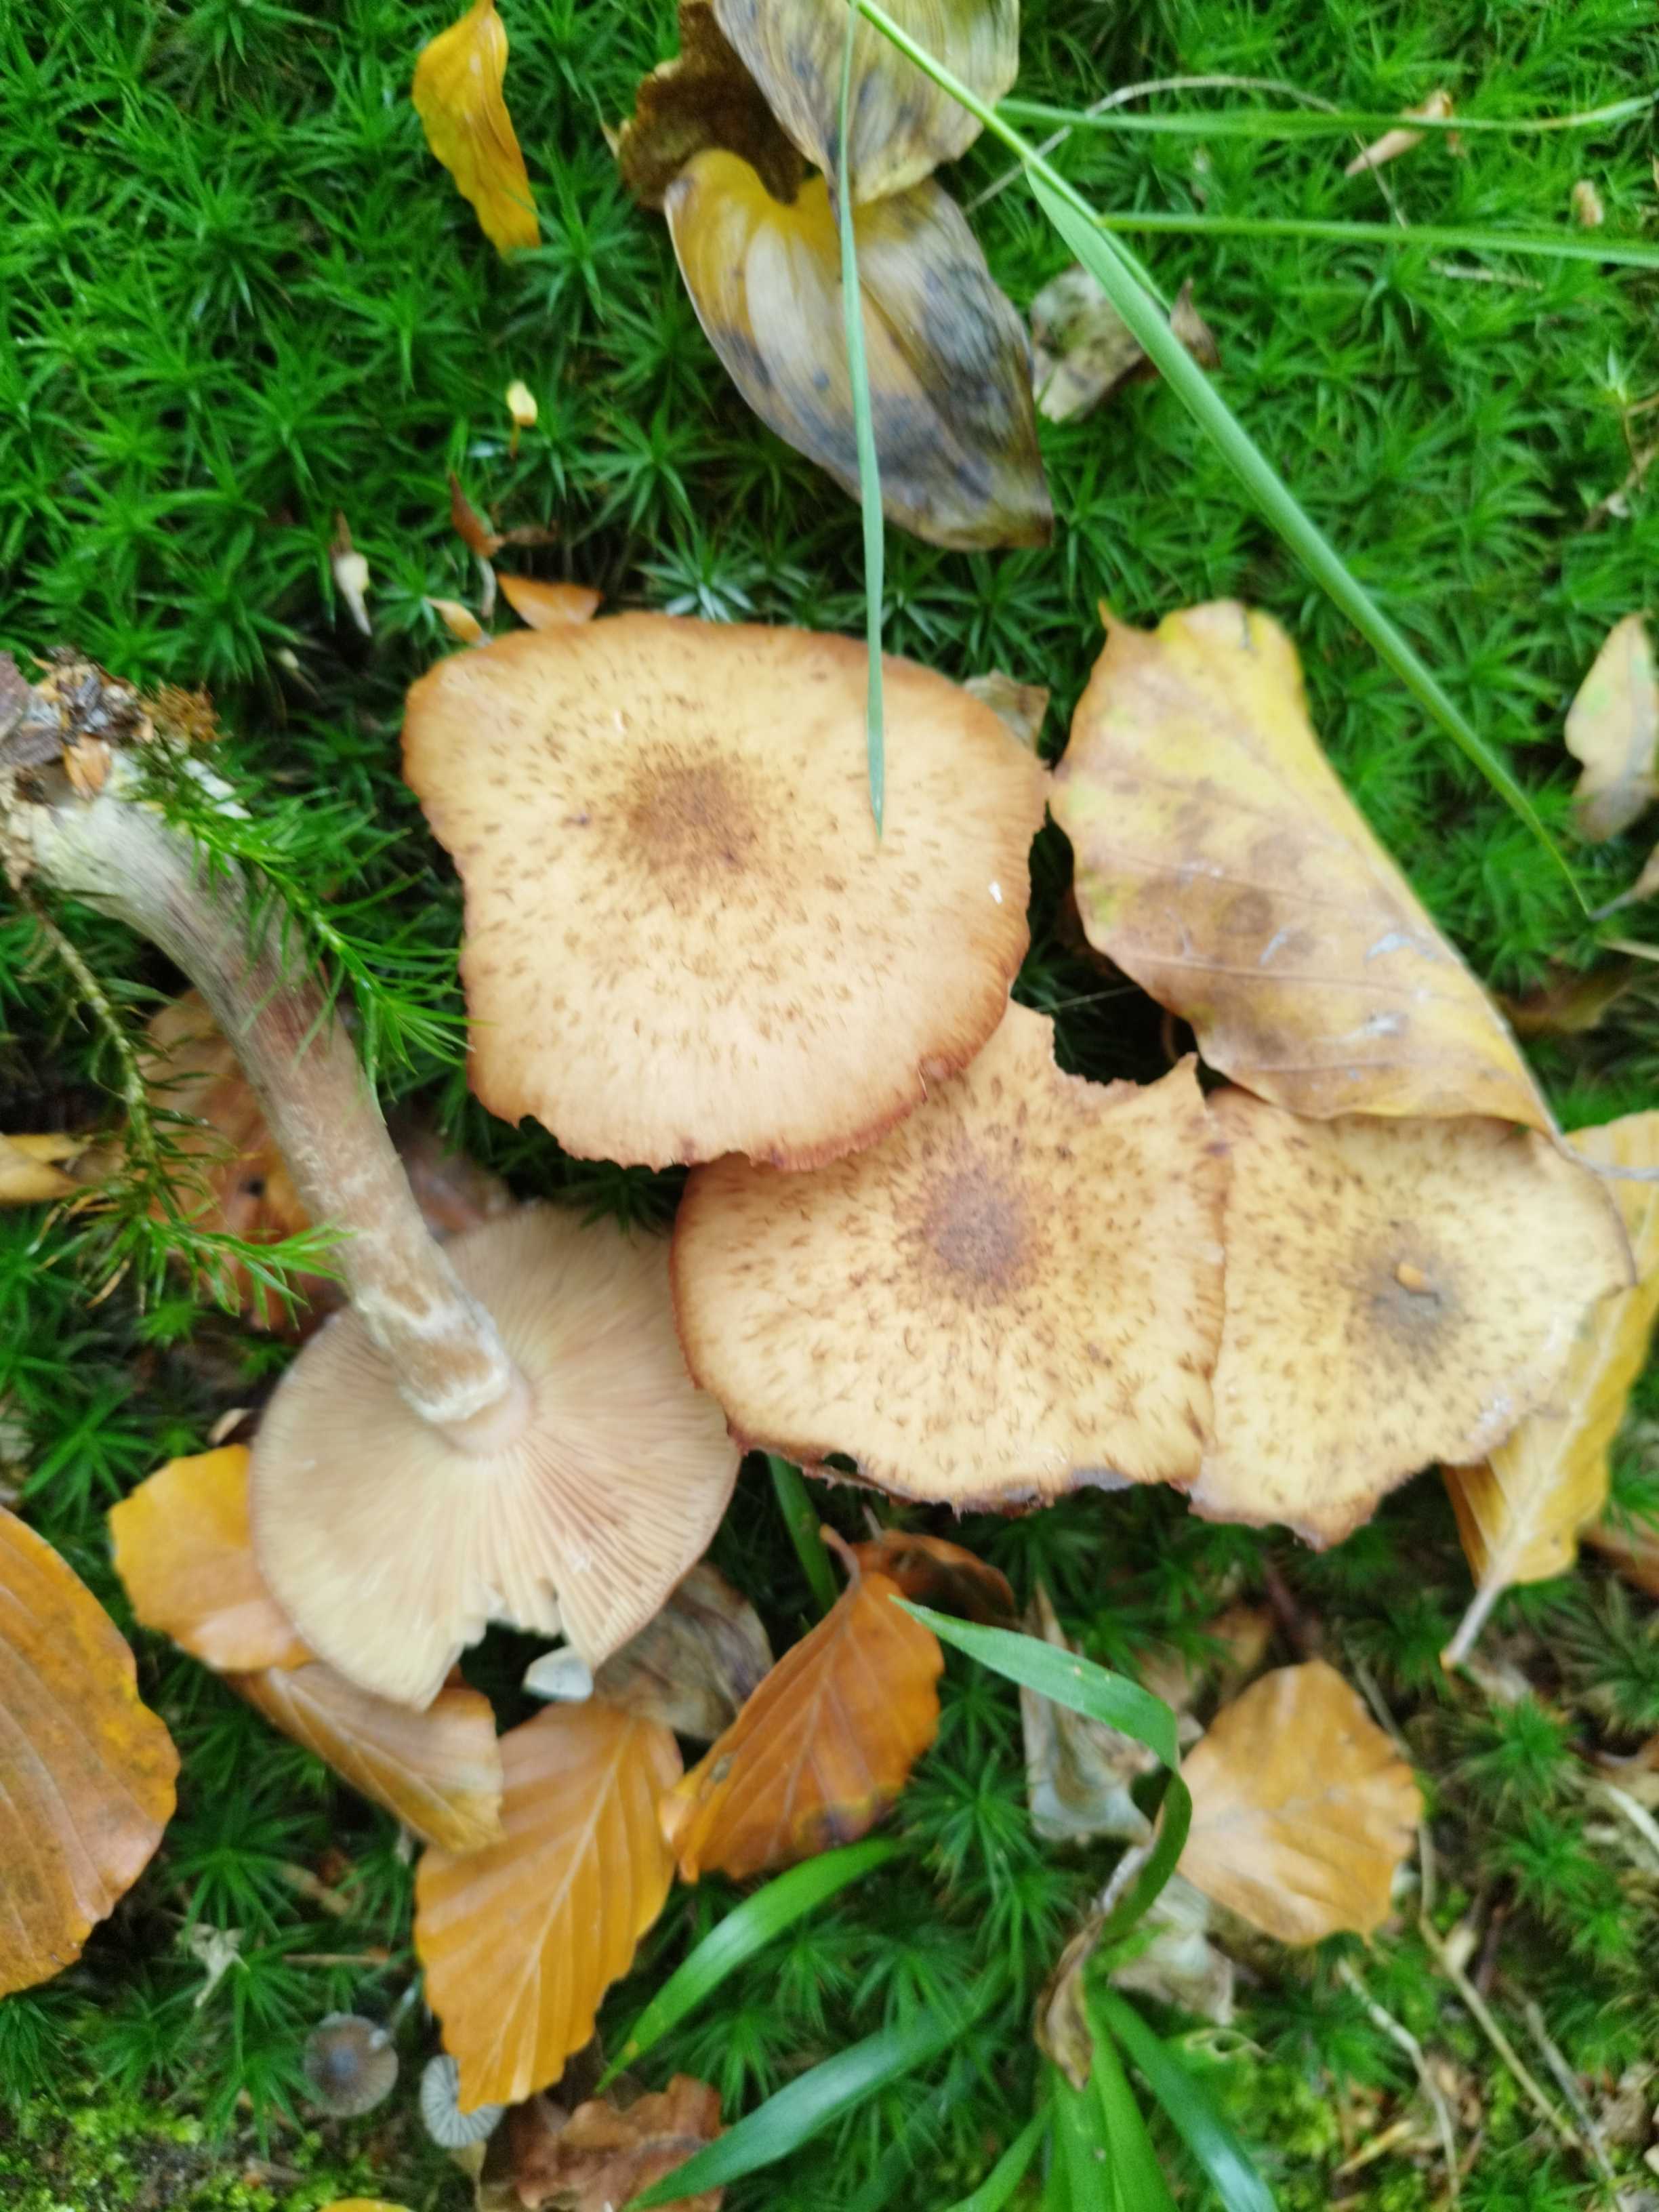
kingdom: Fungi
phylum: Basidiomycota
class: Agaricomycetes
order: Agaricales
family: Physalacriaceae
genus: Armillaria
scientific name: Armillaria lutea
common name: køllestokket honningsvamp
